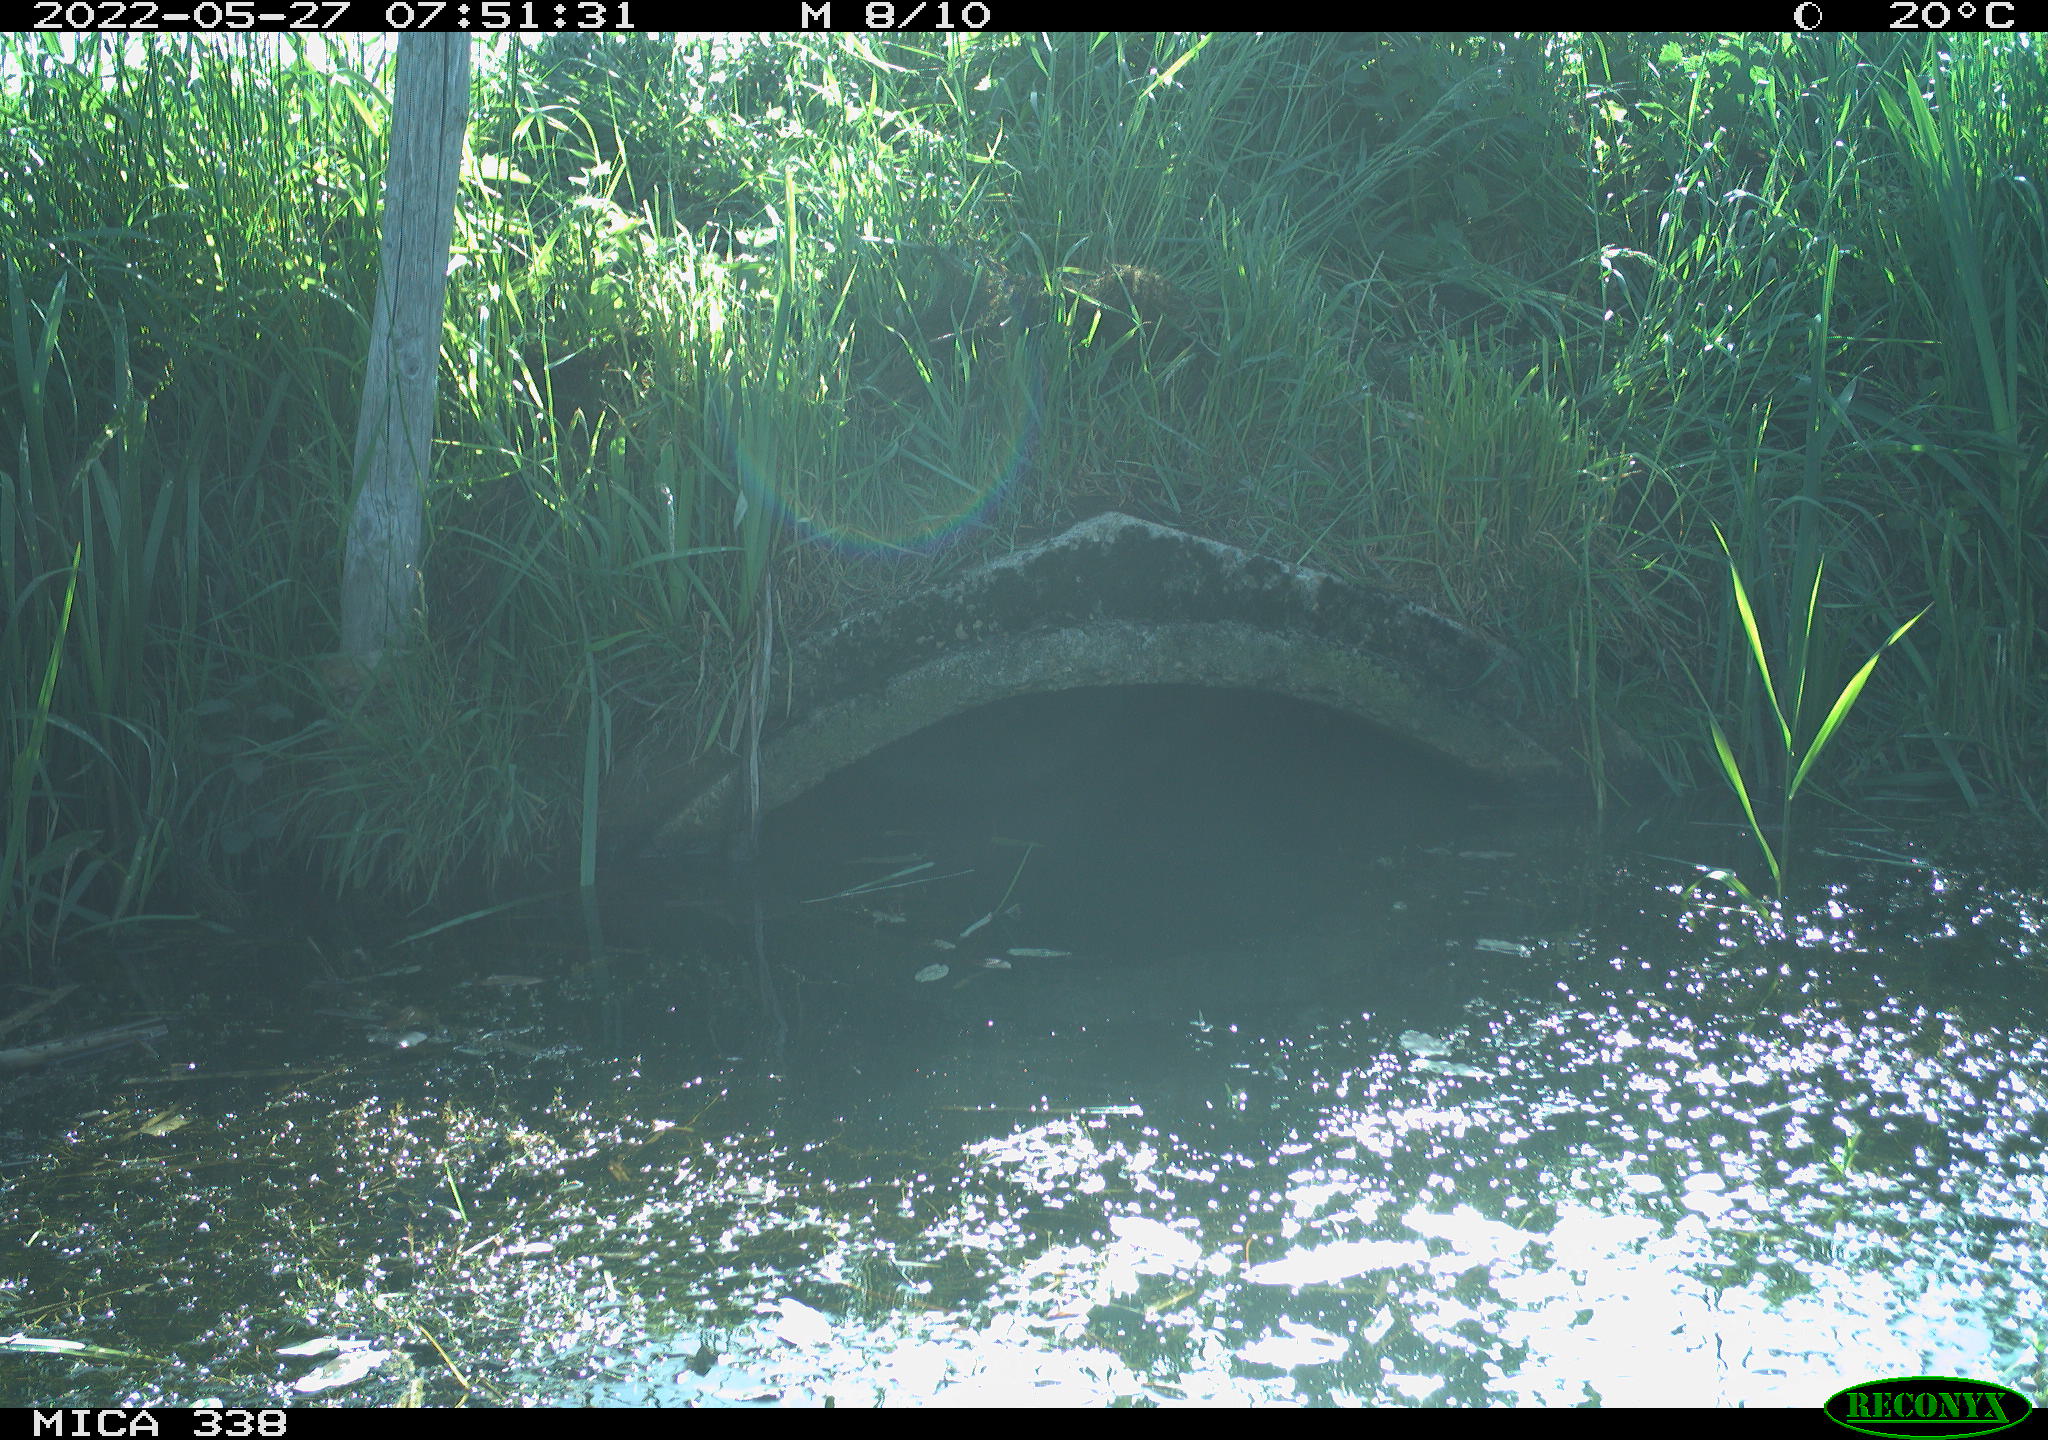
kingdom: Animalia
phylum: Chordata
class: Aves
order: Anseriformes
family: Anatidae
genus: Anas
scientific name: Anas platyrhynchos
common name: Mallard
